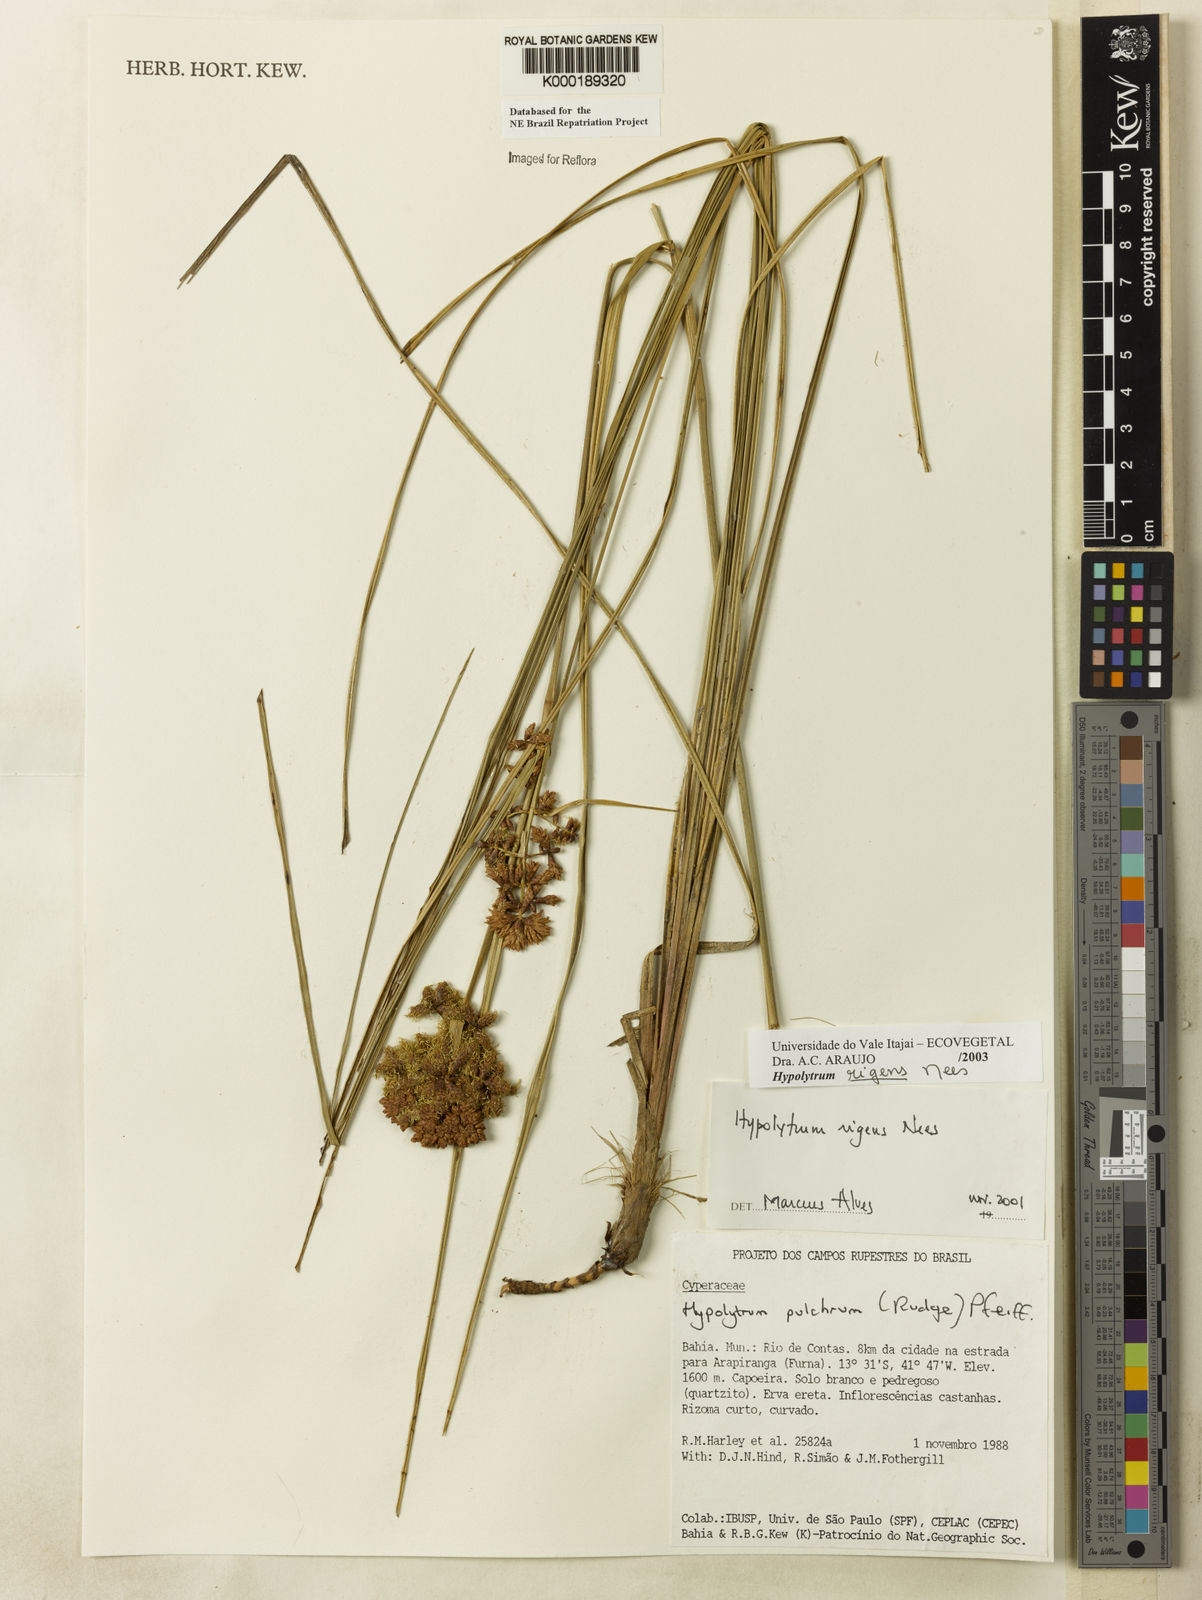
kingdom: Plantae
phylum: Tracheophyta
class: Liliopsida
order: Poales
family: Cyperaceae
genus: Hypolytrum
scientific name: Hypolytrum rigens
